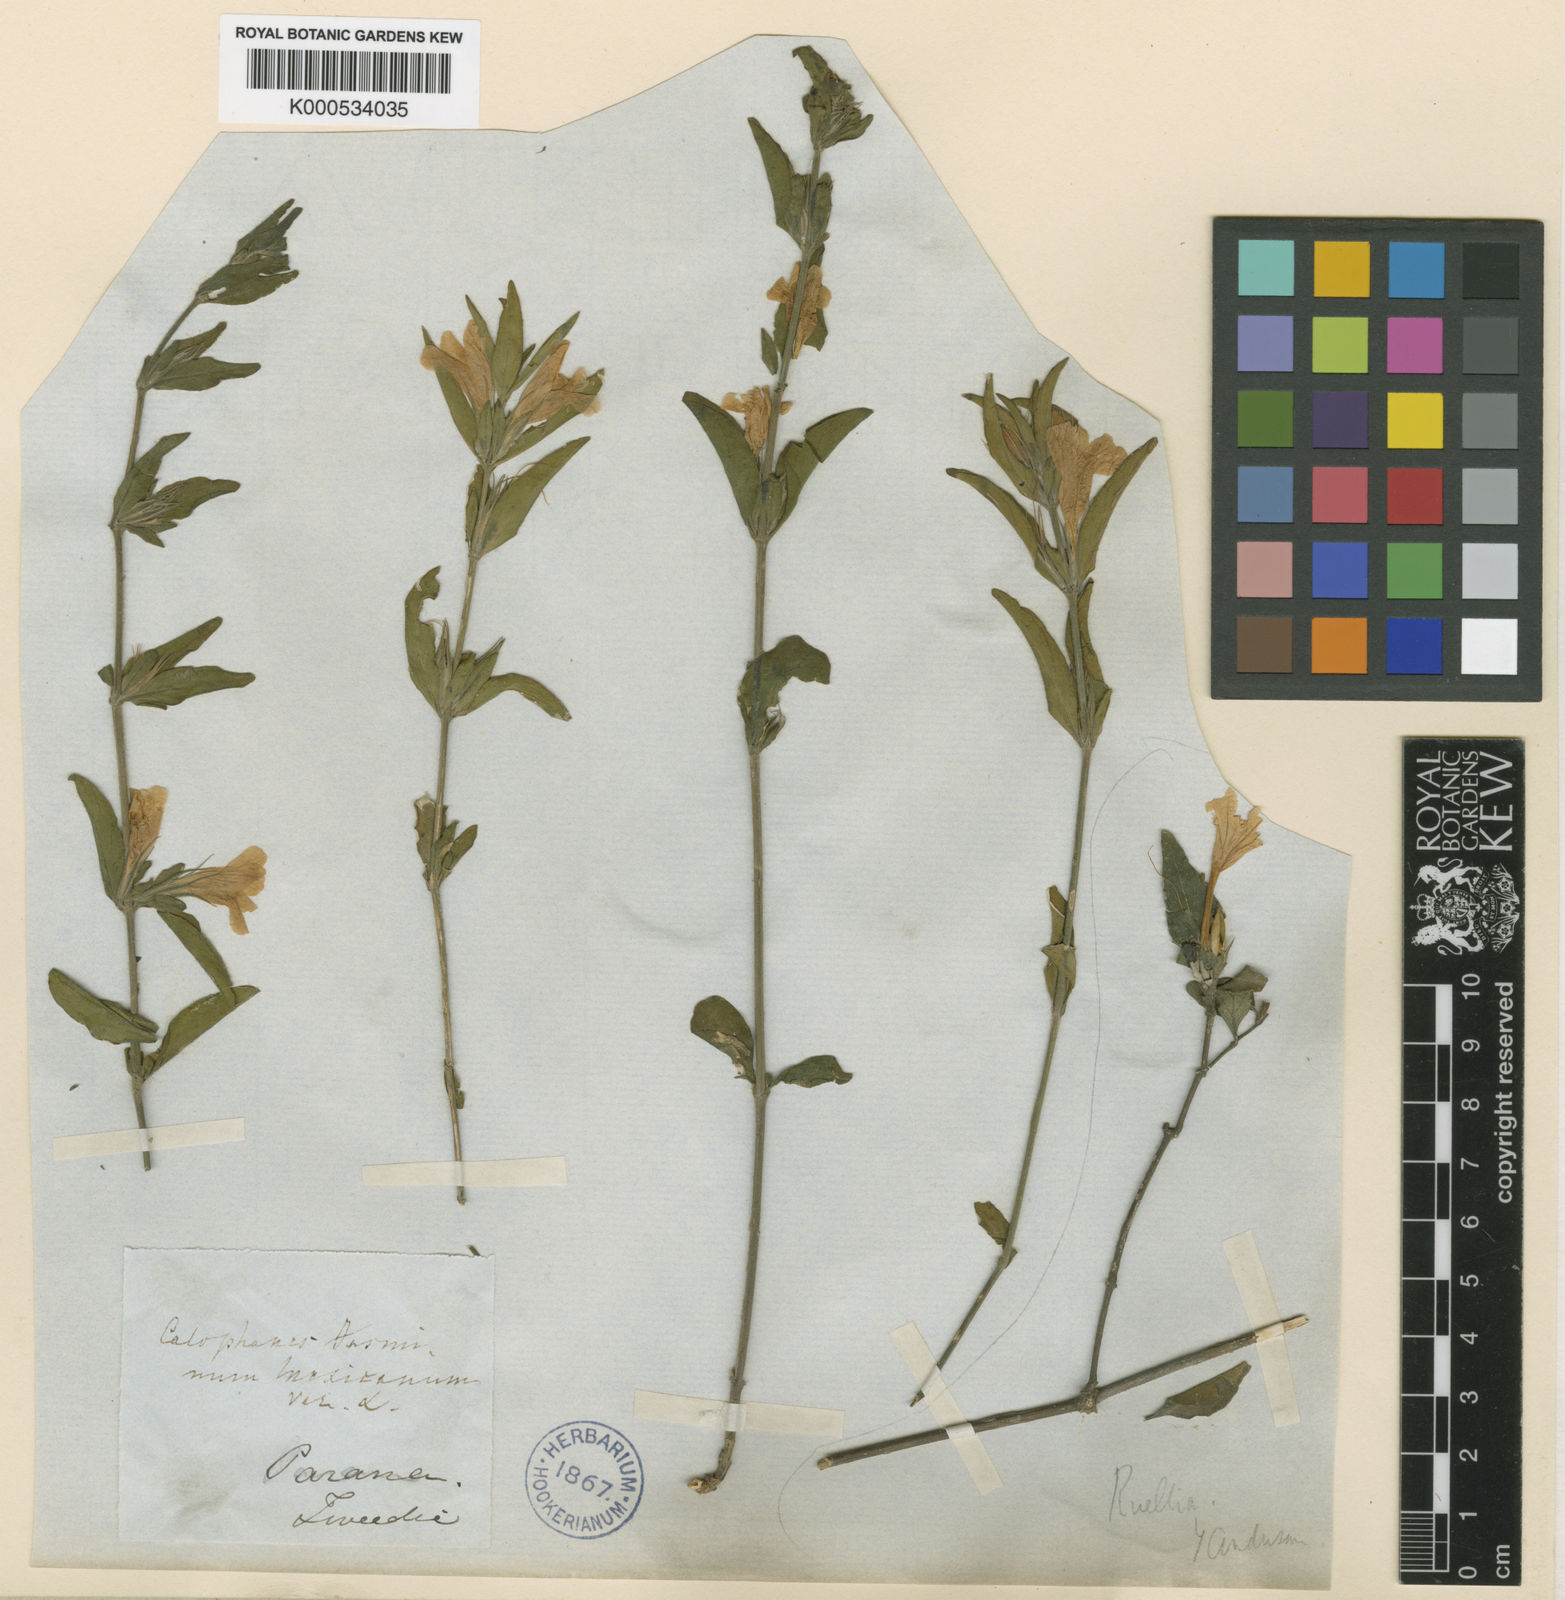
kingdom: Plantae
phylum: Tracheophyta
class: Magnoliopsida
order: Lamiales
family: Acanthaceae
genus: Dyschoriste
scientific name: Dyschoriste
